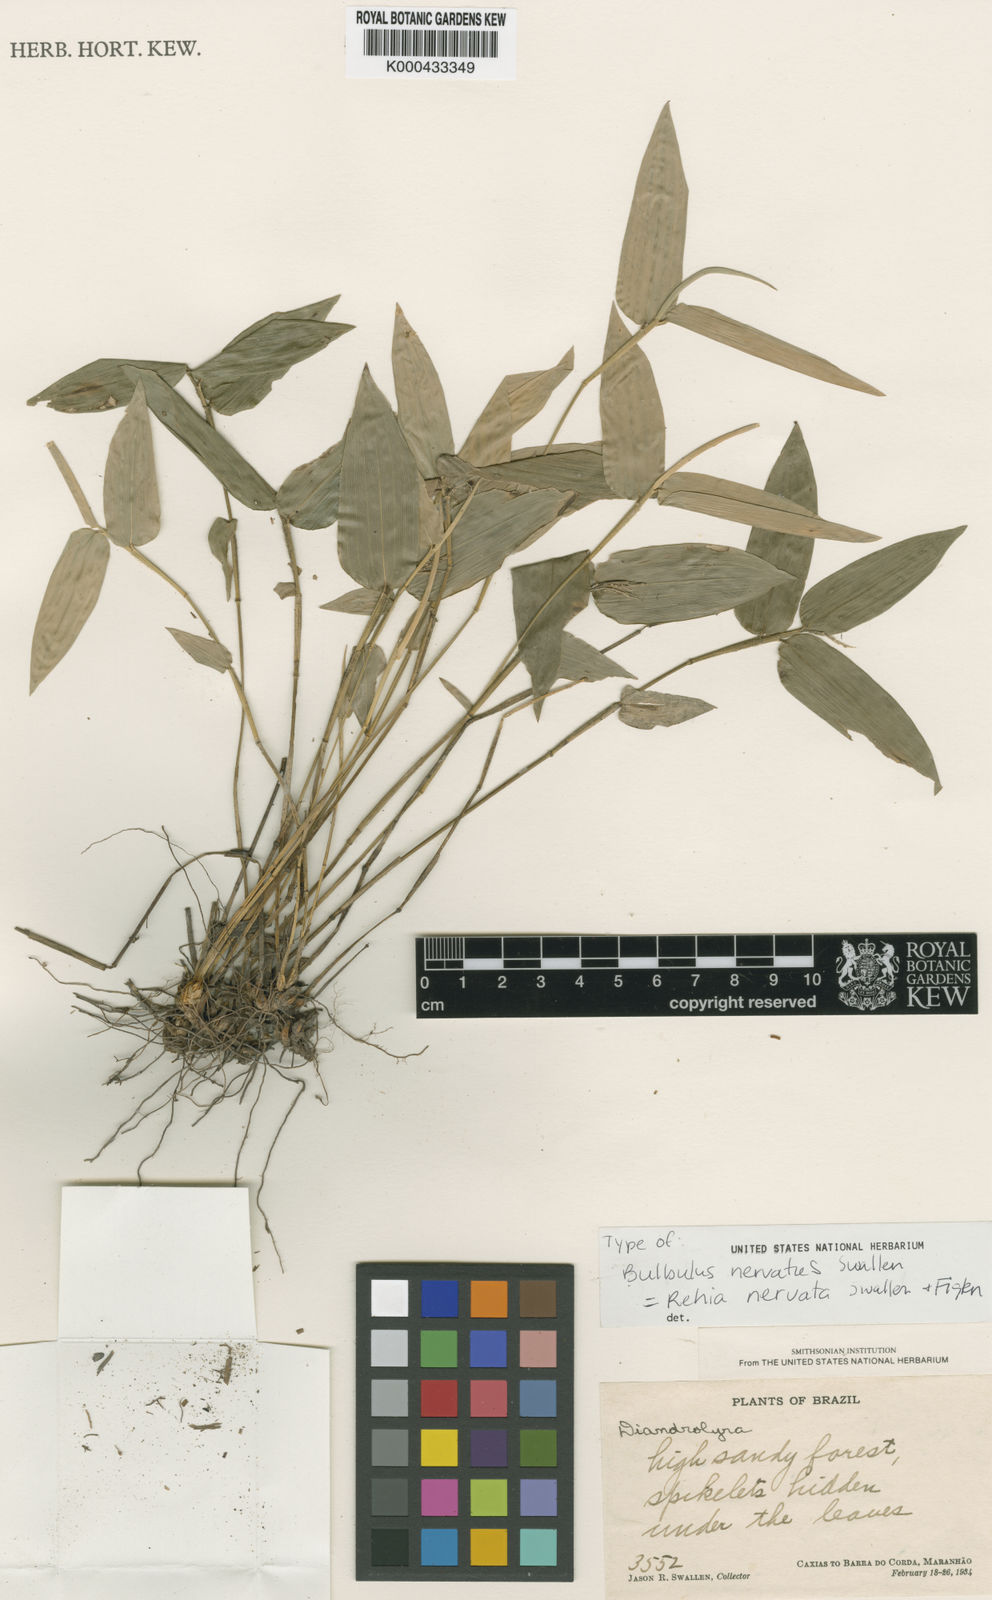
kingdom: Plantae
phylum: Tracheophyta
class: Liliopsida
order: Poales
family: Poaceae
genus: Rehia
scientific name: Rehia nervata
